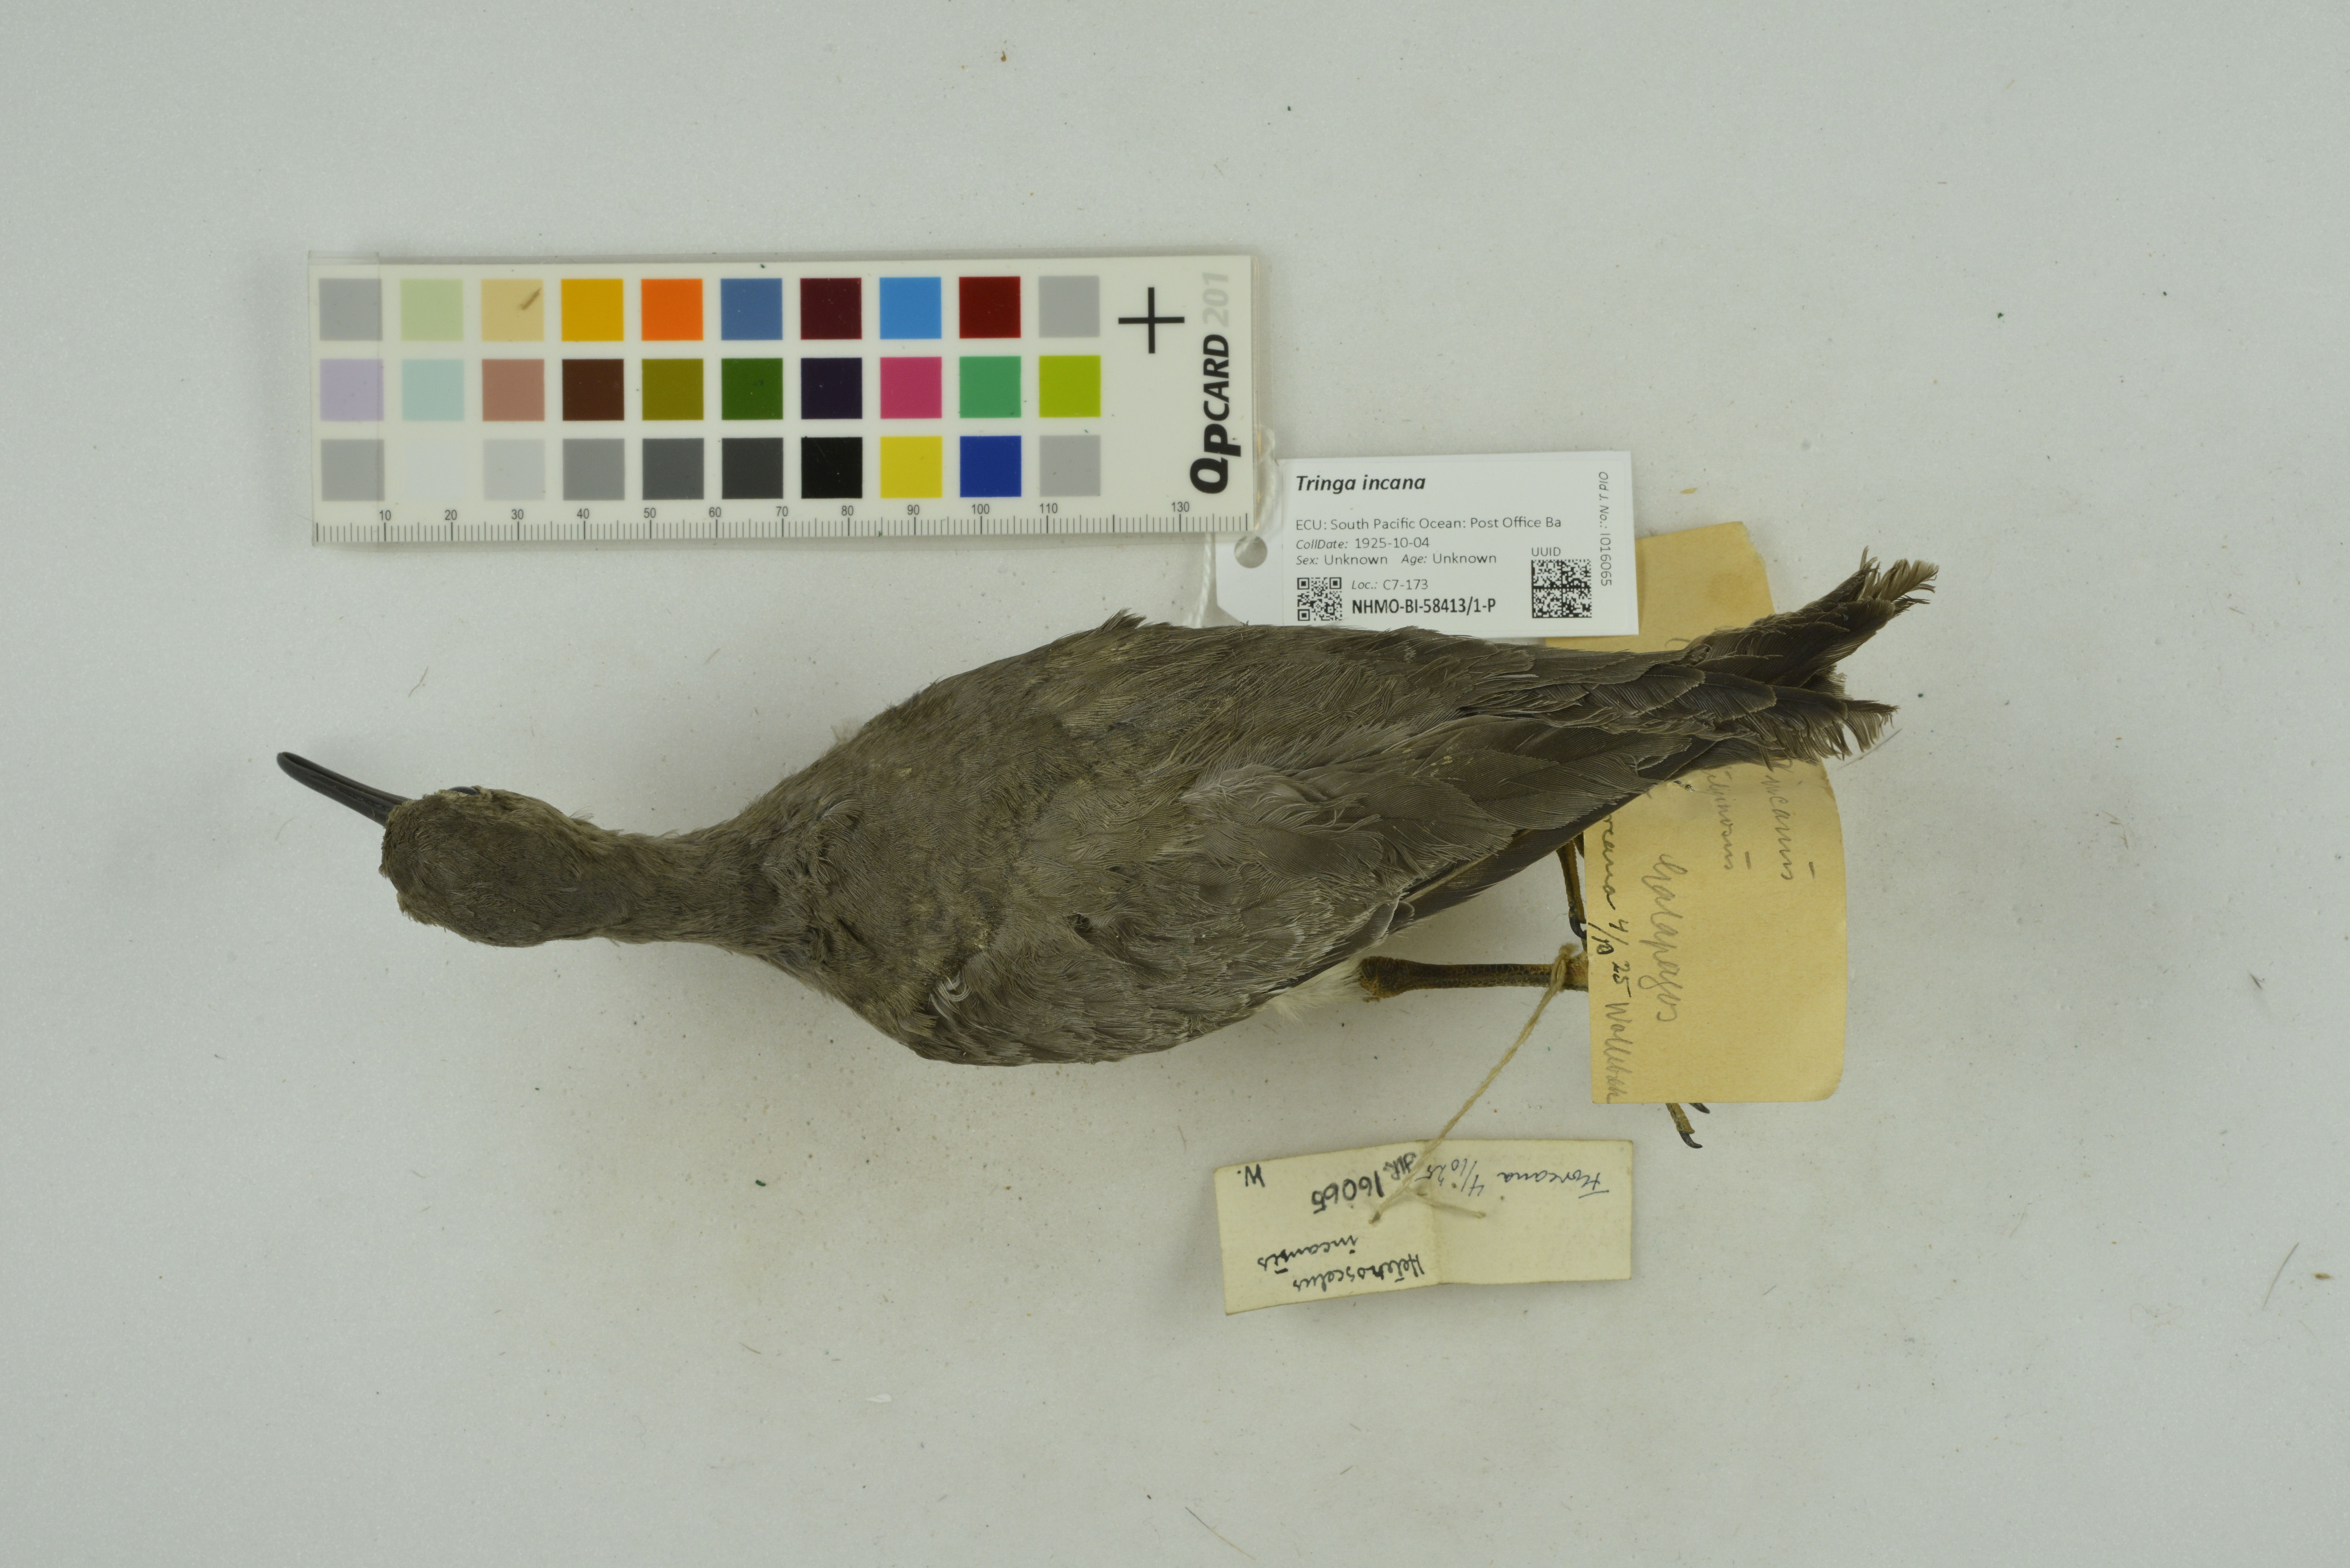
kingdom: Animalia
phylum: Chordata
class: Aves
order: Charadriiformes
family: Scolopacidae
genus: Tringa
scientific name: Tringa incana
